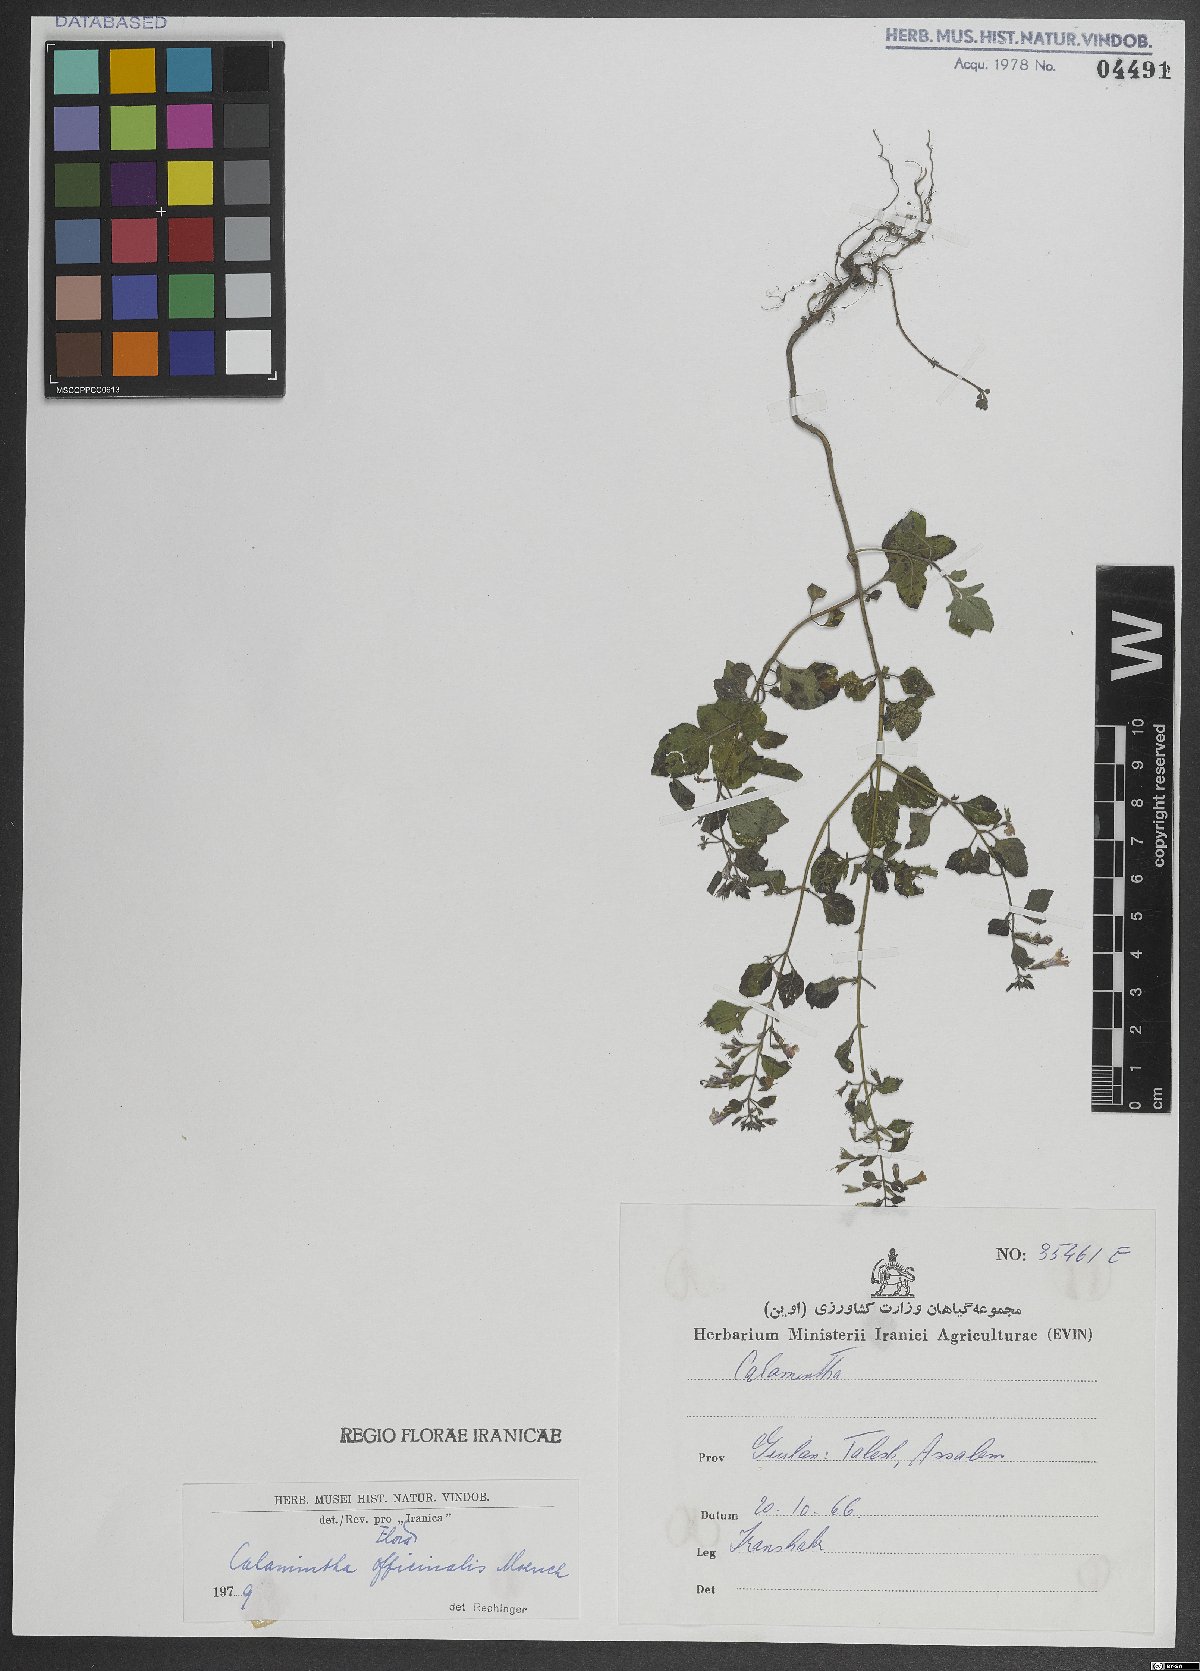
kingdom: Plantae
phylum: Tracheophyta
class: Magnoliopsida
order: Lamiales
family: Lamiaceae
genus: Clinopodium
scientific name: Clinopodium nepeta
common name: Lesser calamint
